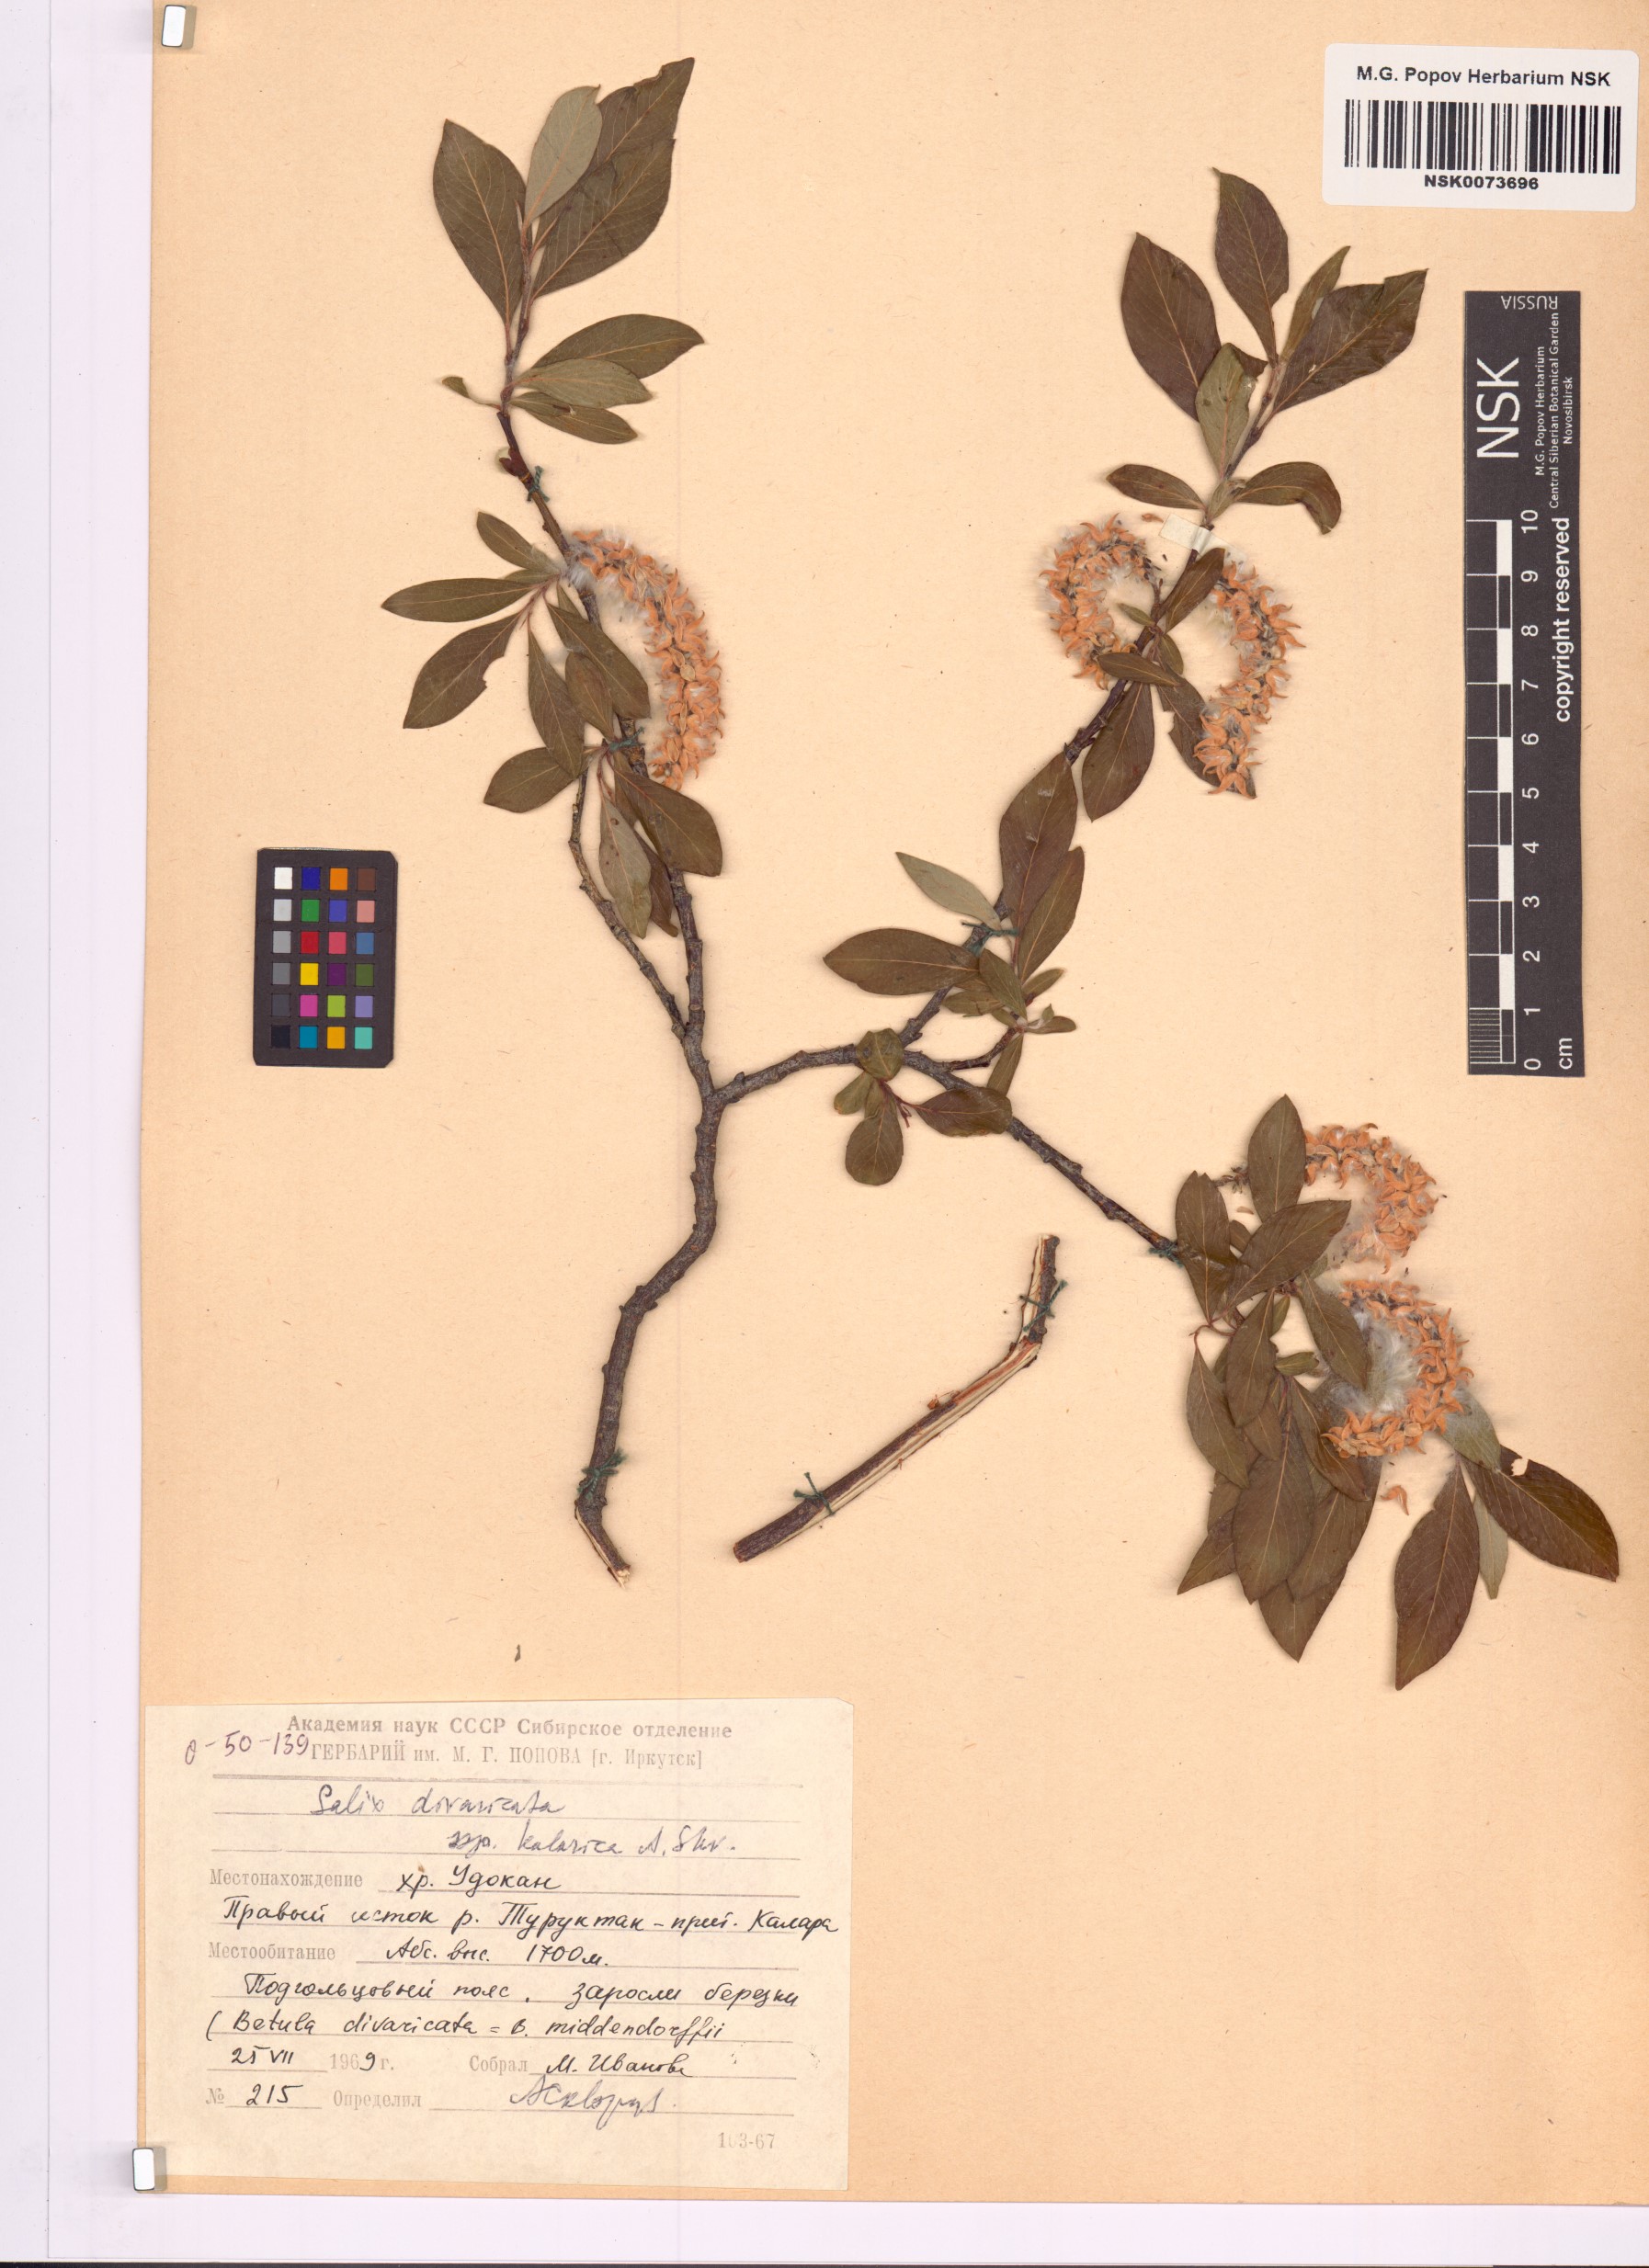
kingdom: Plantae
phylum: Tracheophyta
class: Magnoliopsida
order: Malpighiales
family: Salicaceae
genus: Salix
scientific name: Salix kalarica
